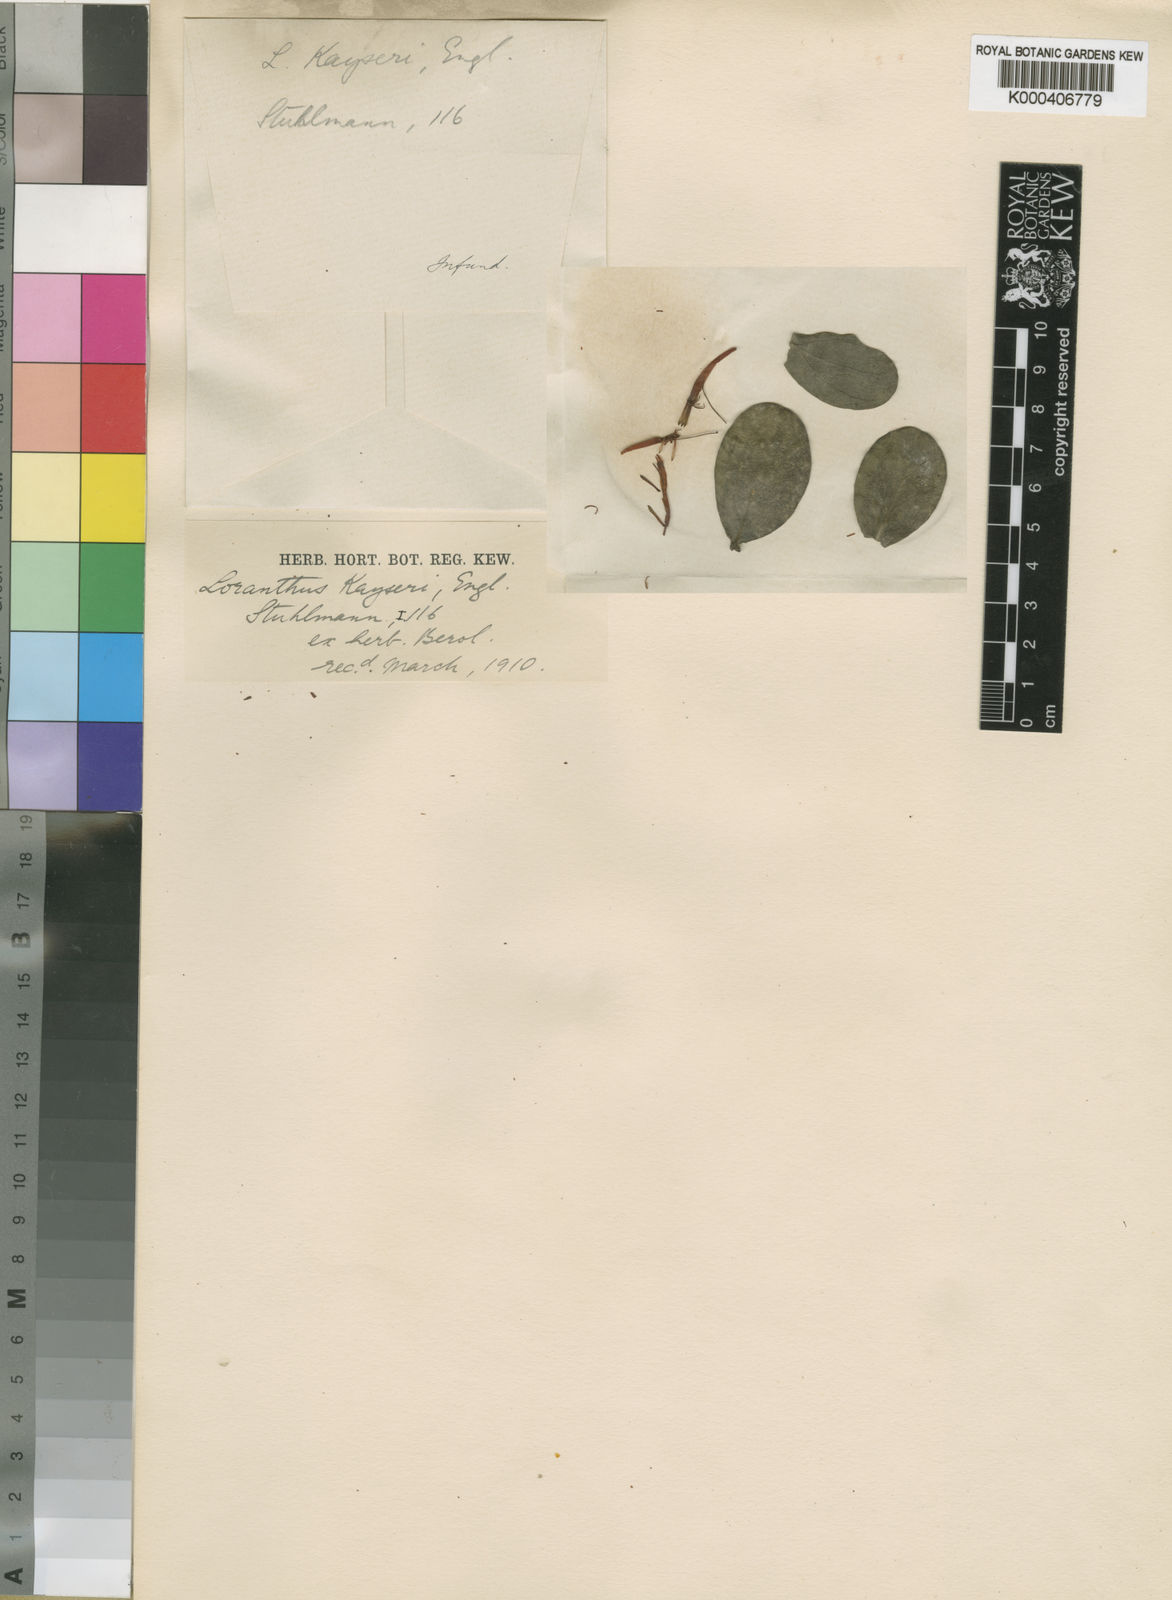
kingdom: Plantae
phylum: Tracheophyta
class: Magnoliopsida
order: Santalales
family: Loranthaceae
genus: Agelanthus
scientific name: Agelanthus kayseri
